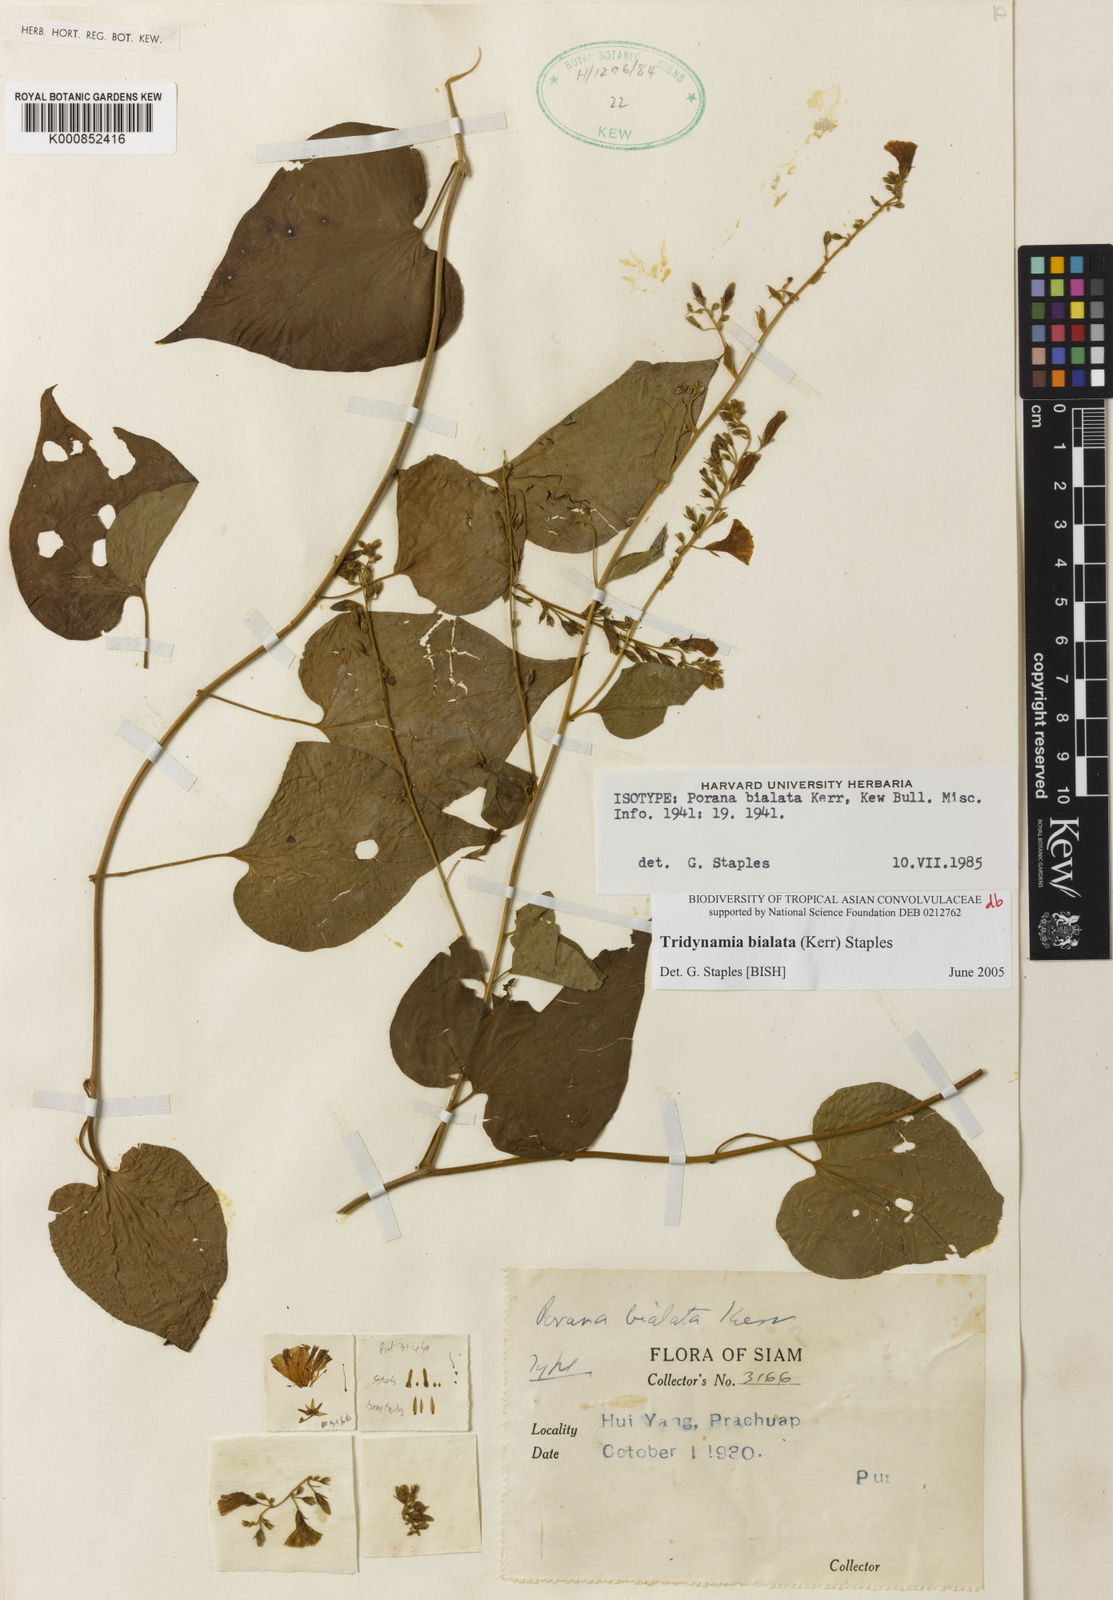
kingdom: Plantae
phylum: Tracheophyta
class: Magnoliopsida
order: Solanales
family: Convolvulaceae
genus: Tridynamia
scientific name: Tridynamia bialata
